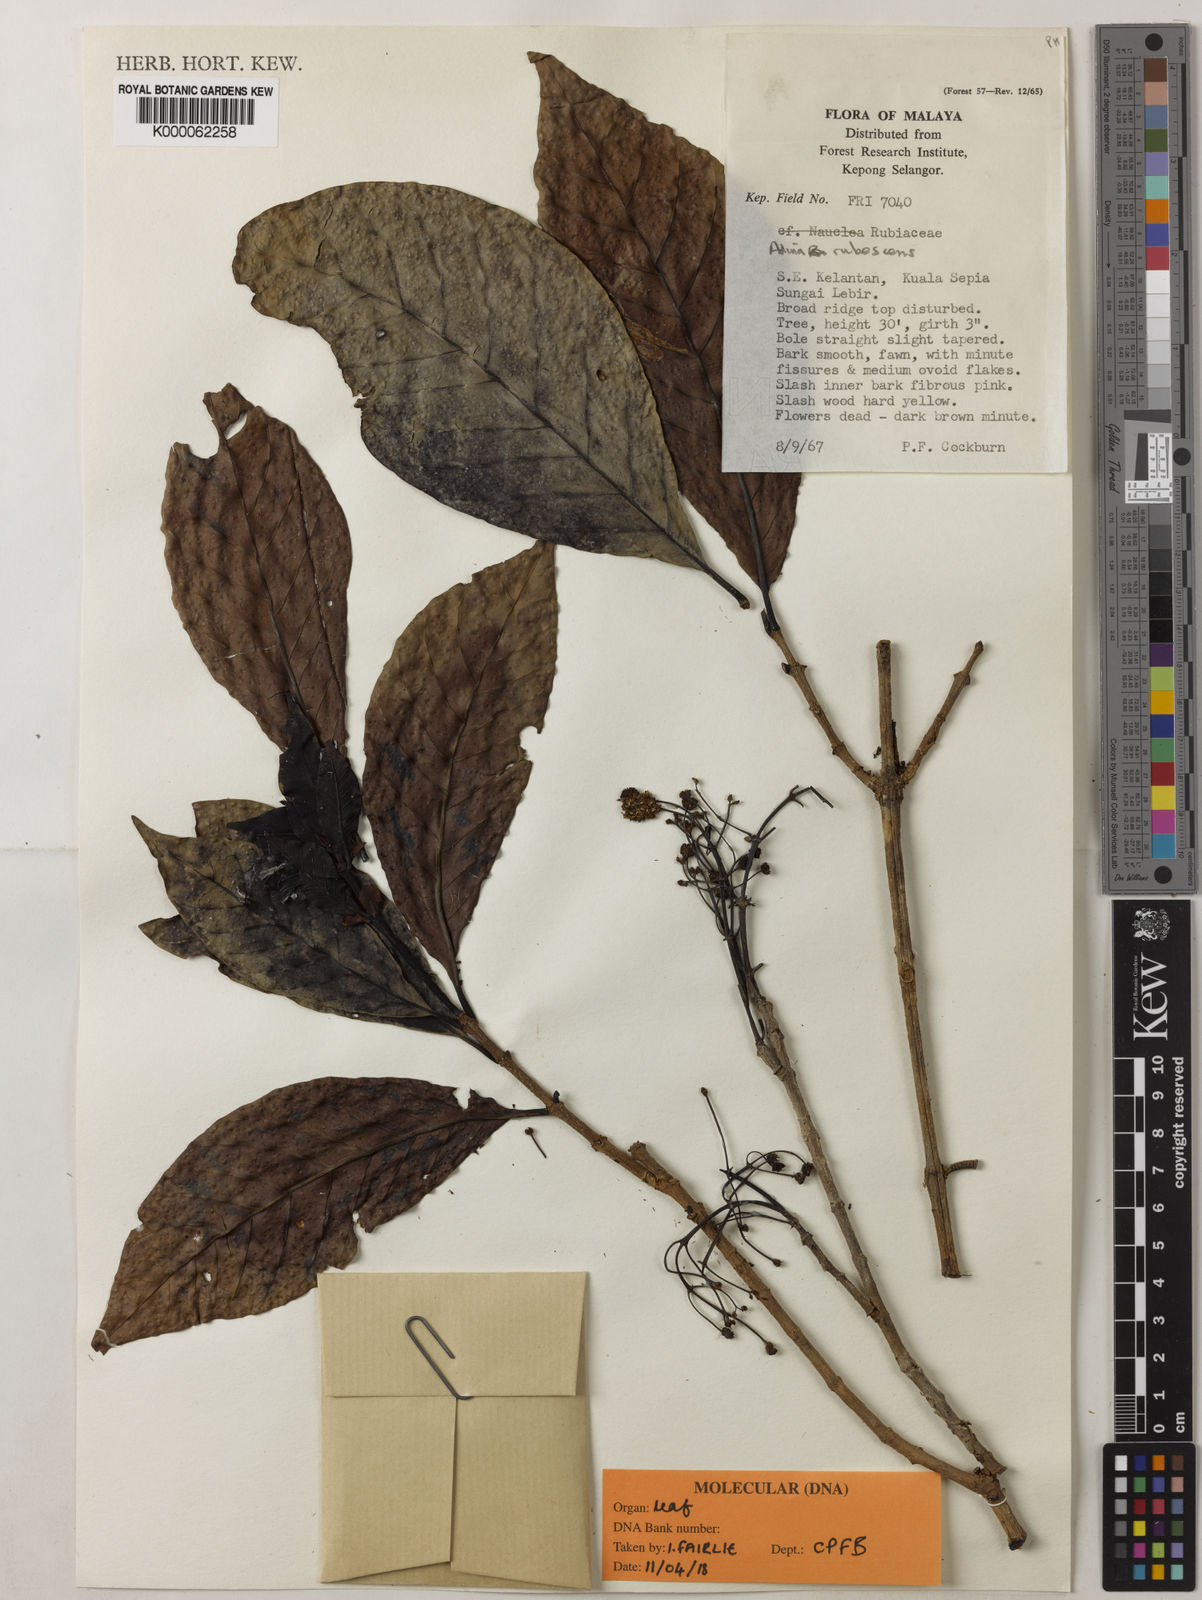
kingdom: Plantae
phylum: Tracheophyta
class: Magnoliopsida
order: Gentianales
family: Rubiaceae
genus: Adina
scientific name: Adina eurhyncha
